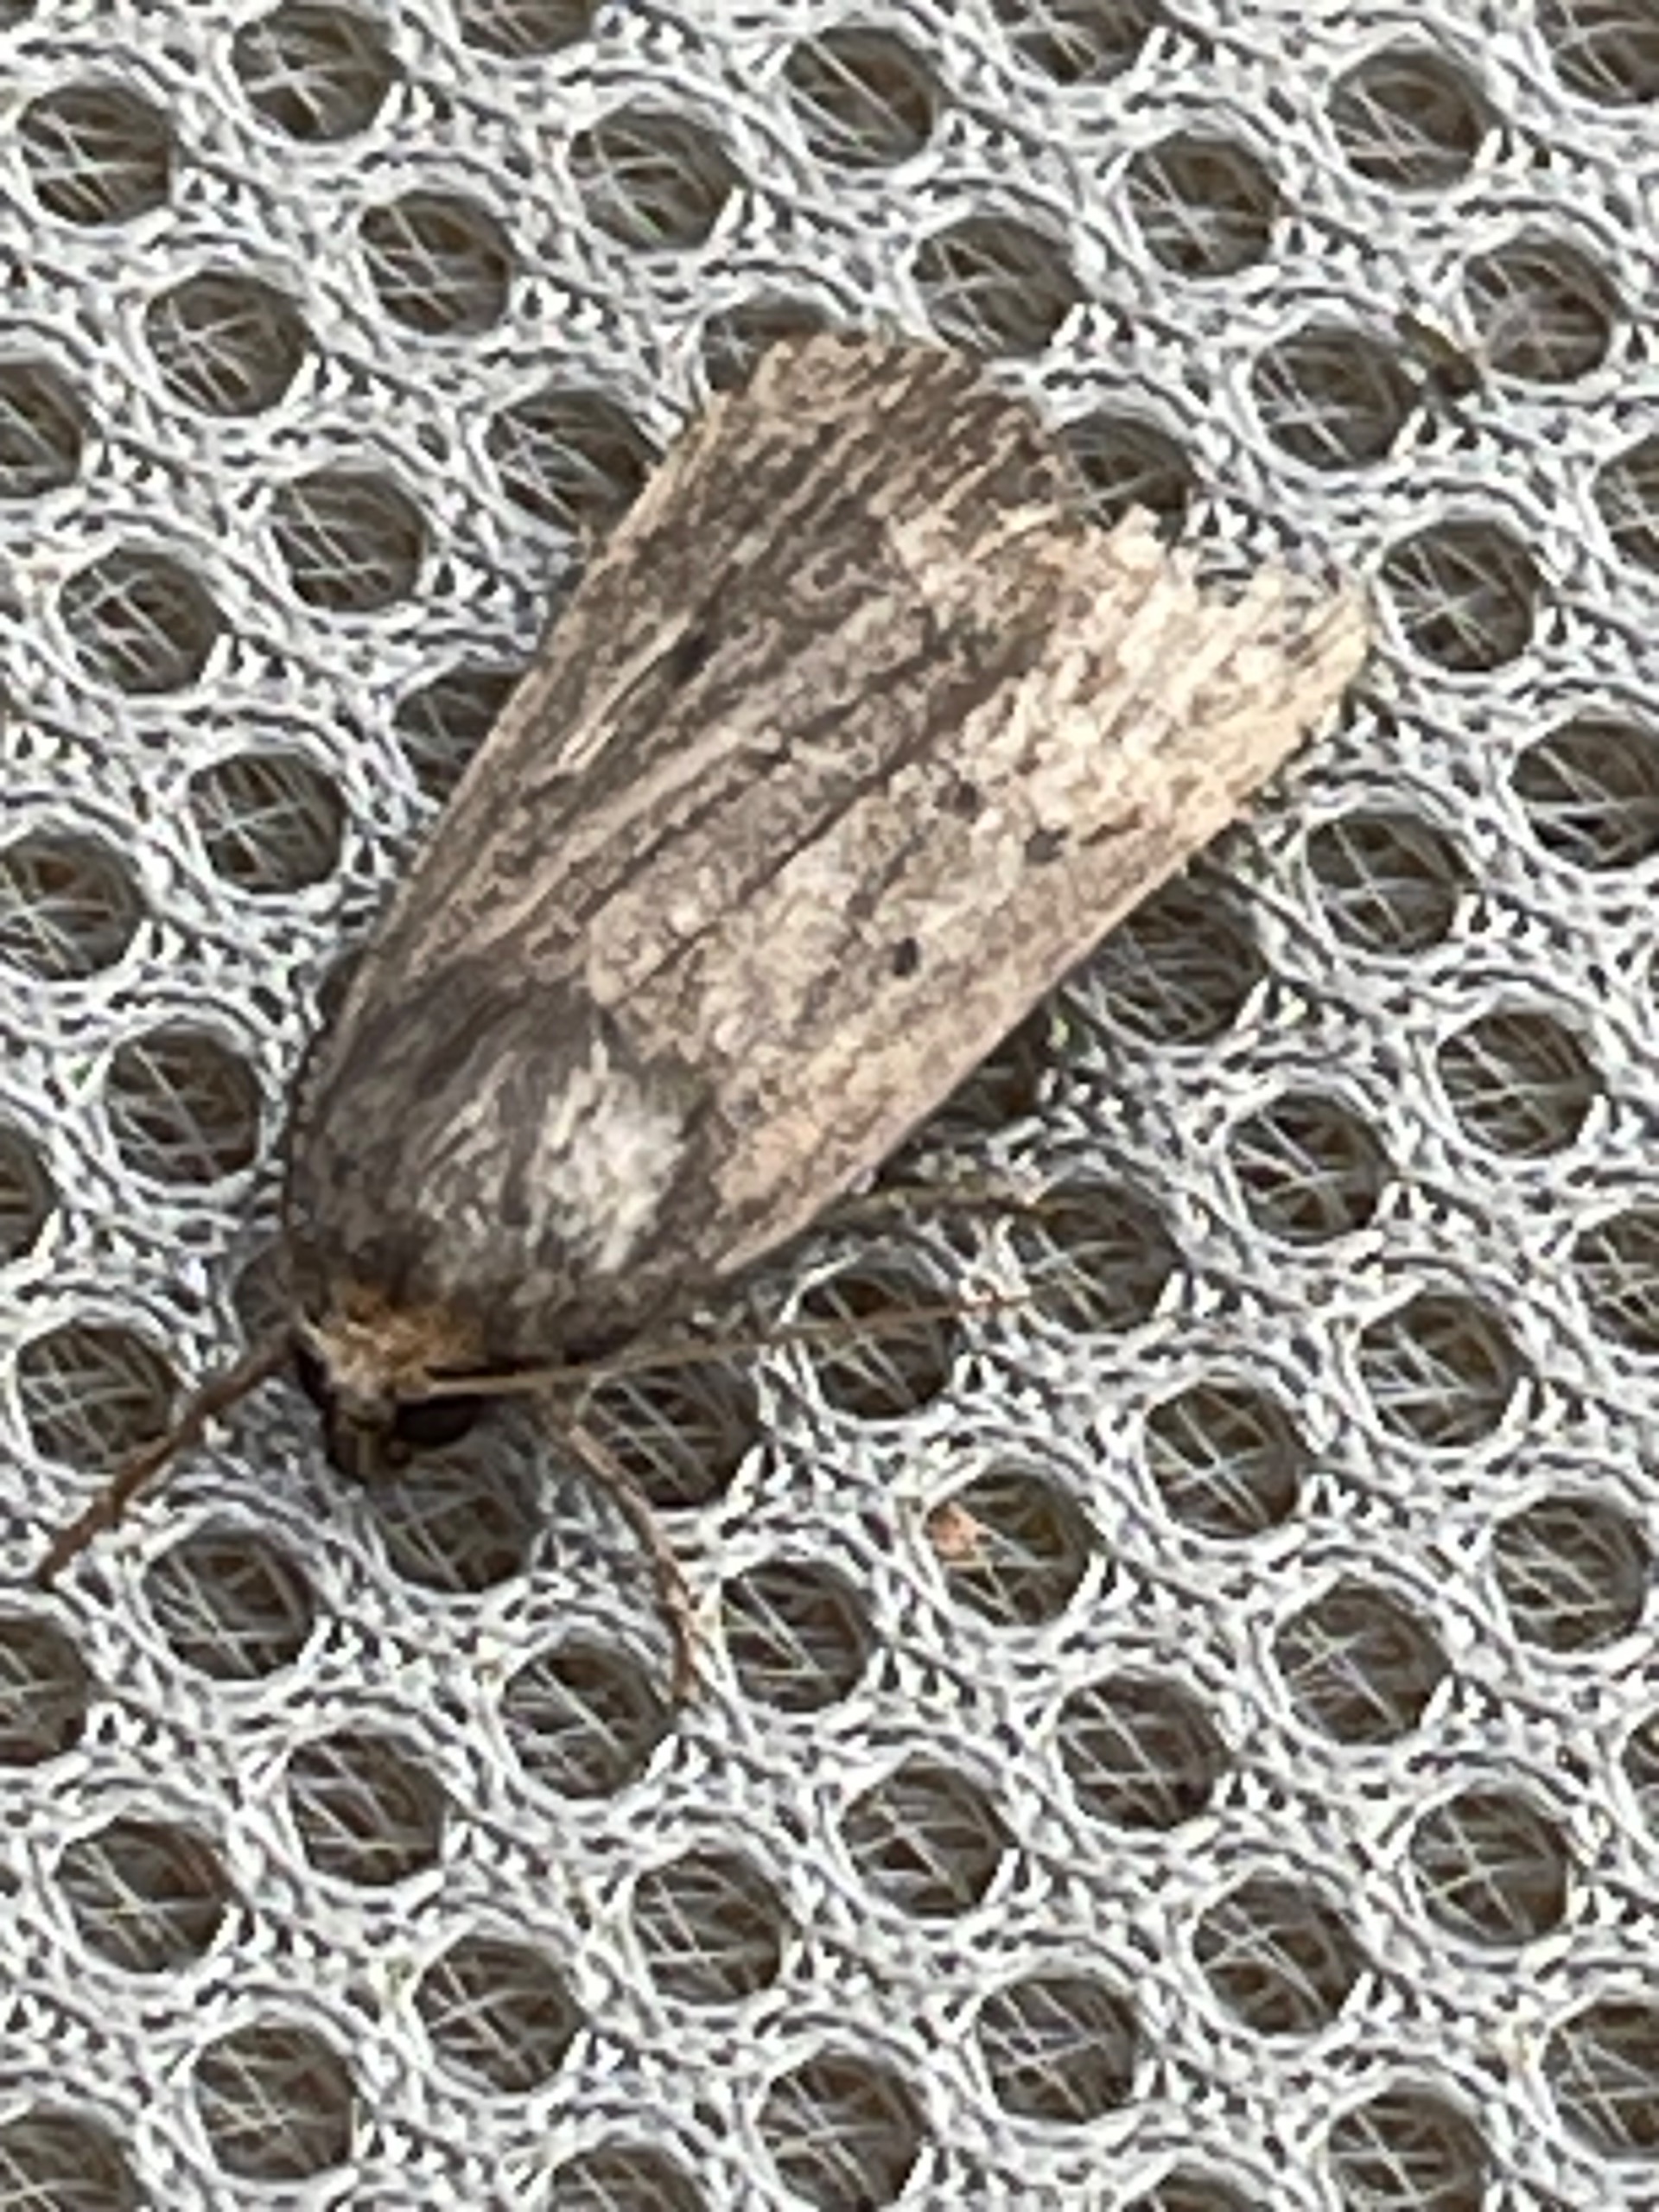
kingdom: Animalia
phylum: Arthropoda
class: Insecta
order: Lepidoptera
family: Noctuidae
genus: Amphipyra
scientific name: Amphipyra tragopoginis
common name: Blyantsugle
